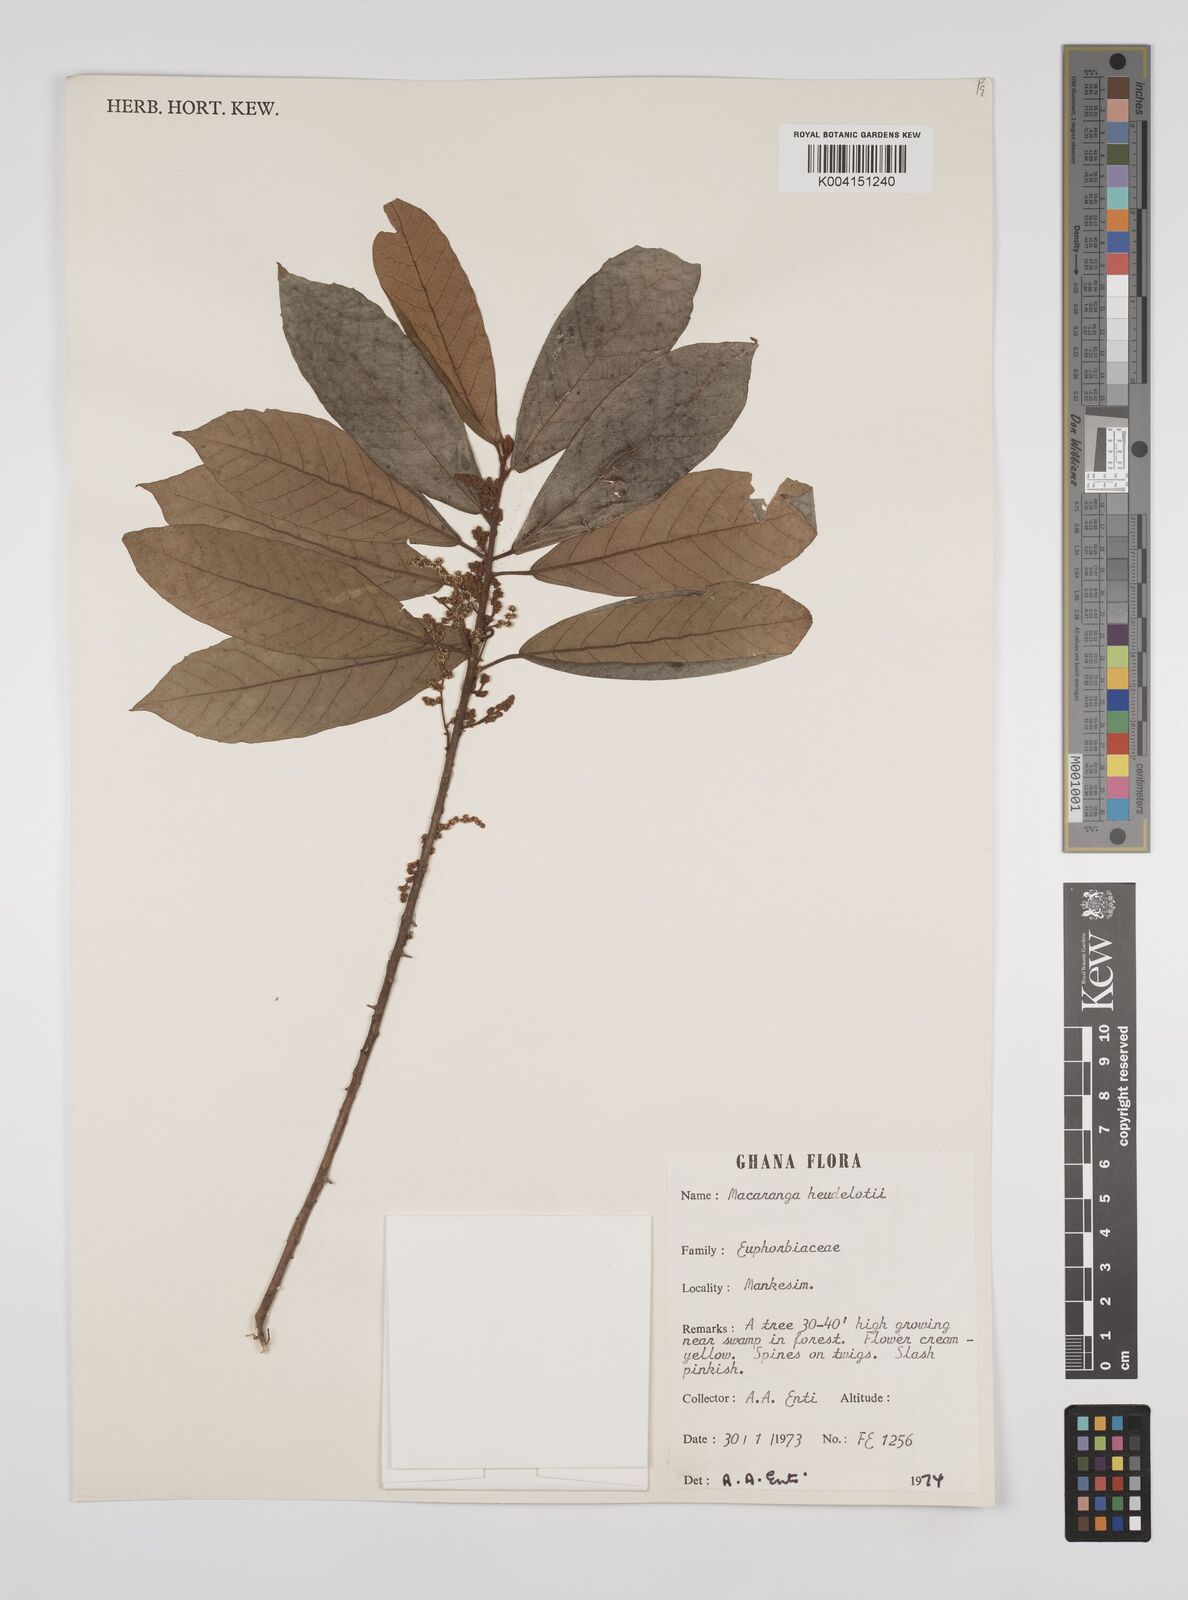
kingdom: Plantae
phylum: Tracheophyta
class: Magnoliopsida
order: Malpighiales
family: Euphorbiaceae
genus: Macaranga
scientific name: Macaranga heudelotii
